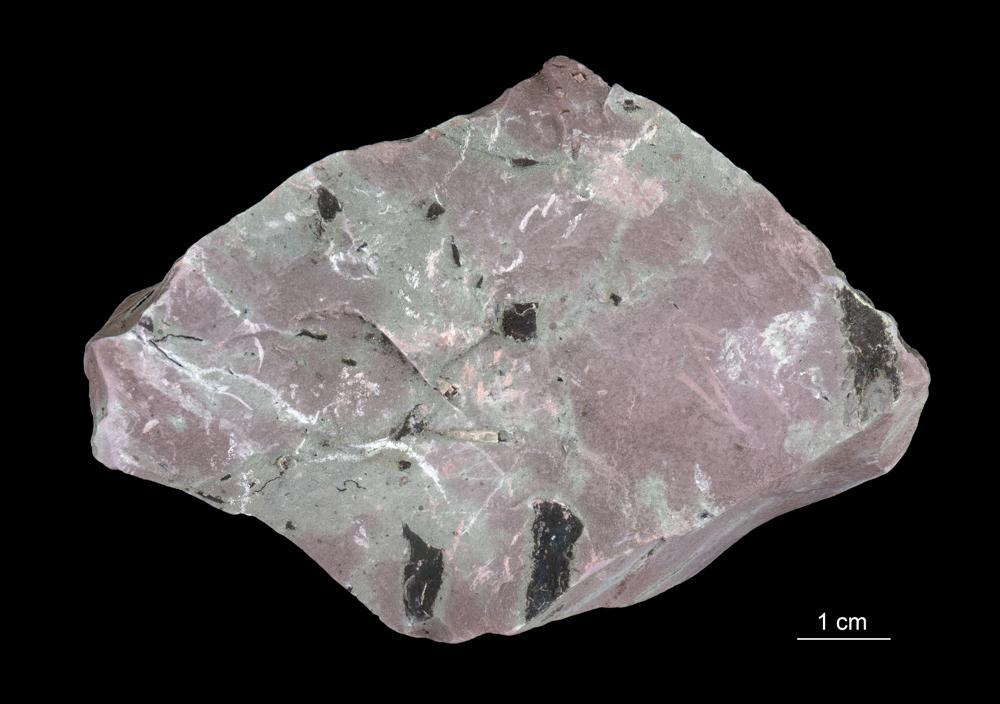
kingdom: Chromista
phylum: Foraminifera
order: Astrorhizida
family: Hyperamminidae
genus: Platysolenites
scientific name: Platysolenites antiquissimus
